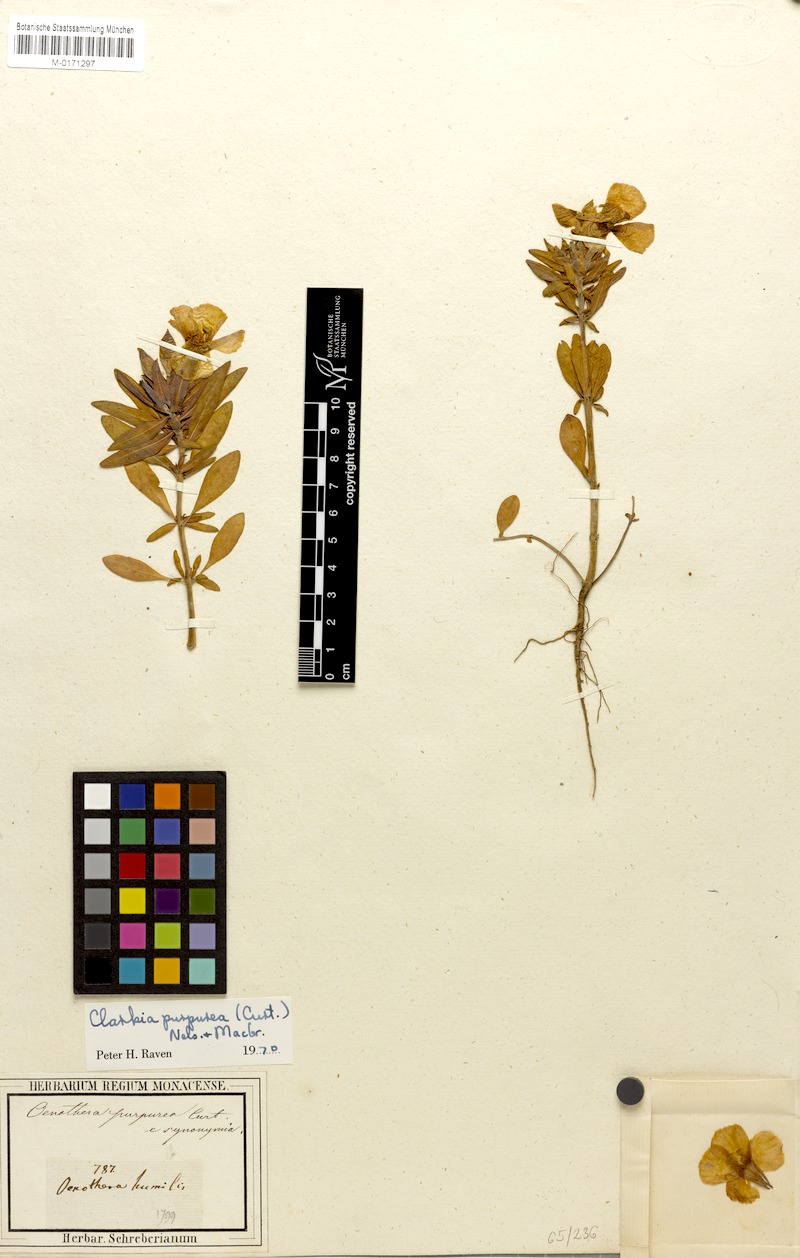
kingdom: Plantae
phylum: Tracheophyta
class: Magnoliopsida
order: Myrtales
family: Onagraceae
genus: Clarkia
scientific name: Clarkia purpurea
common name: Purple clarkia
